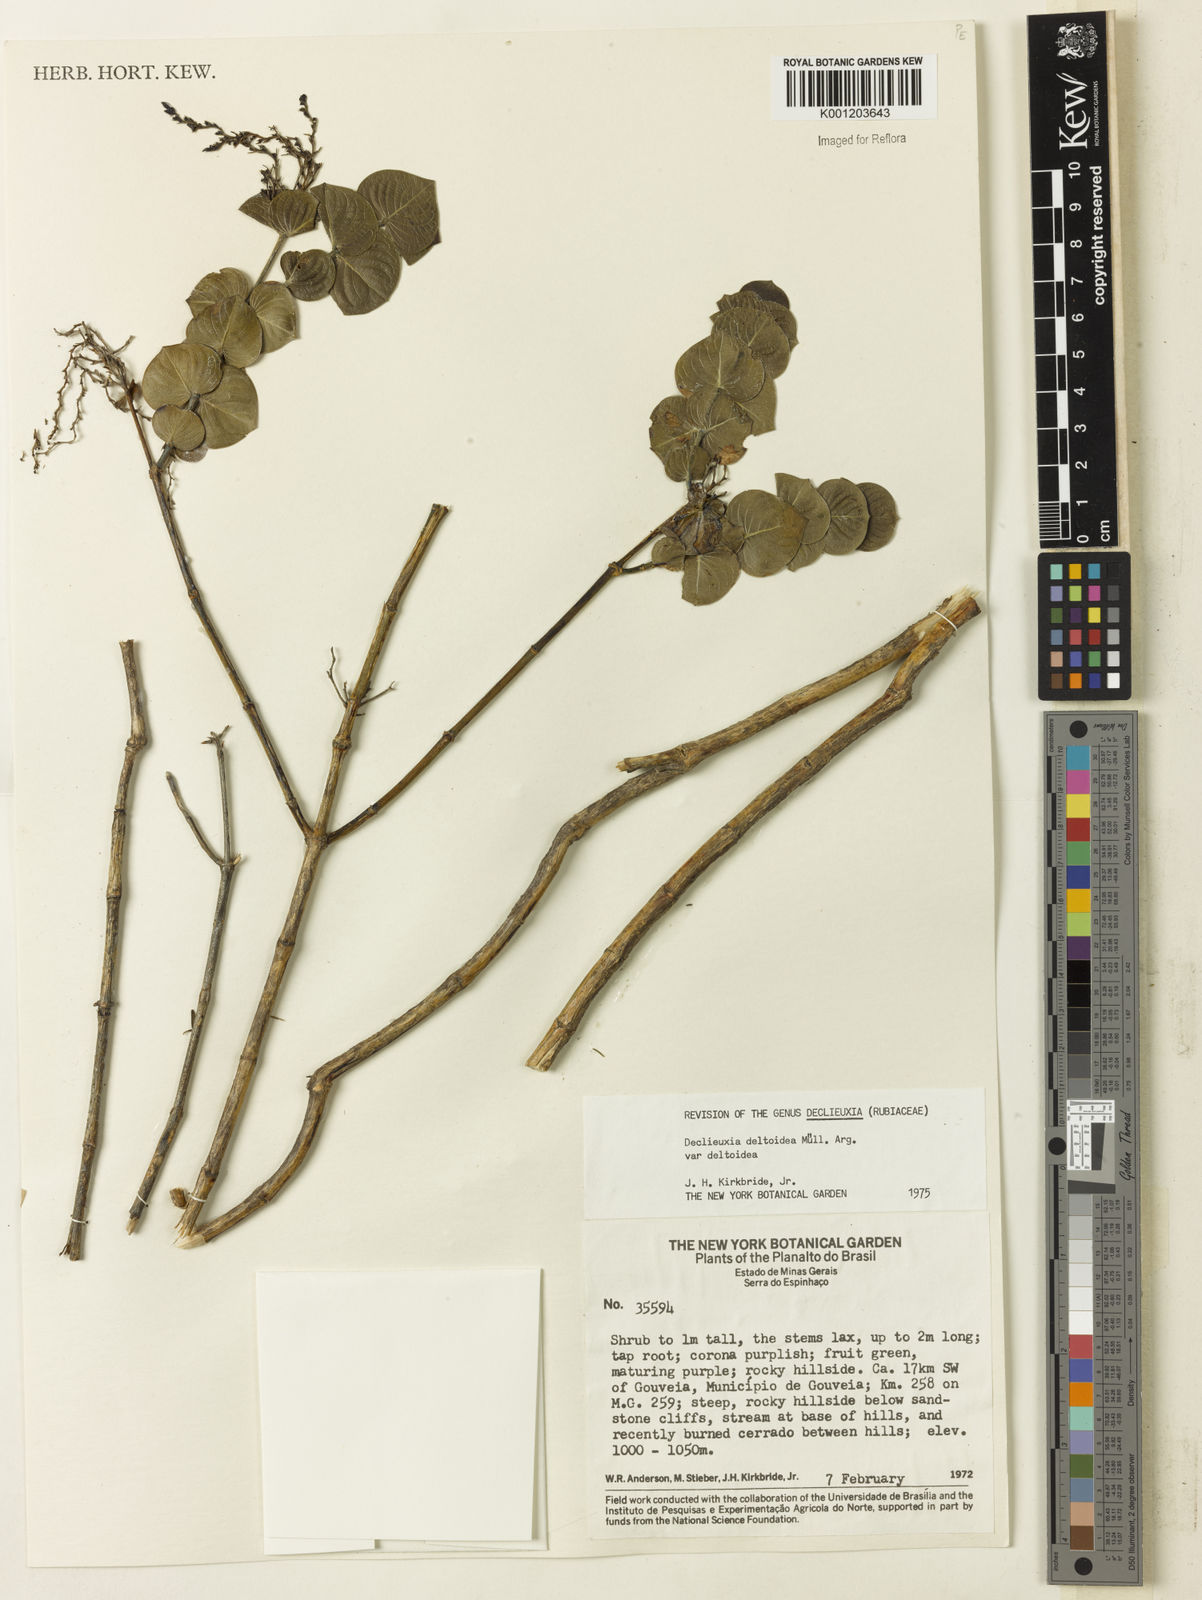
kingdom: Plantae
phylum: Tracheophyta
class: Magnoliopsida
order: Gentianales
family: Rubiaceae
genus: Declieuxia
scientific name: Declieuxia
